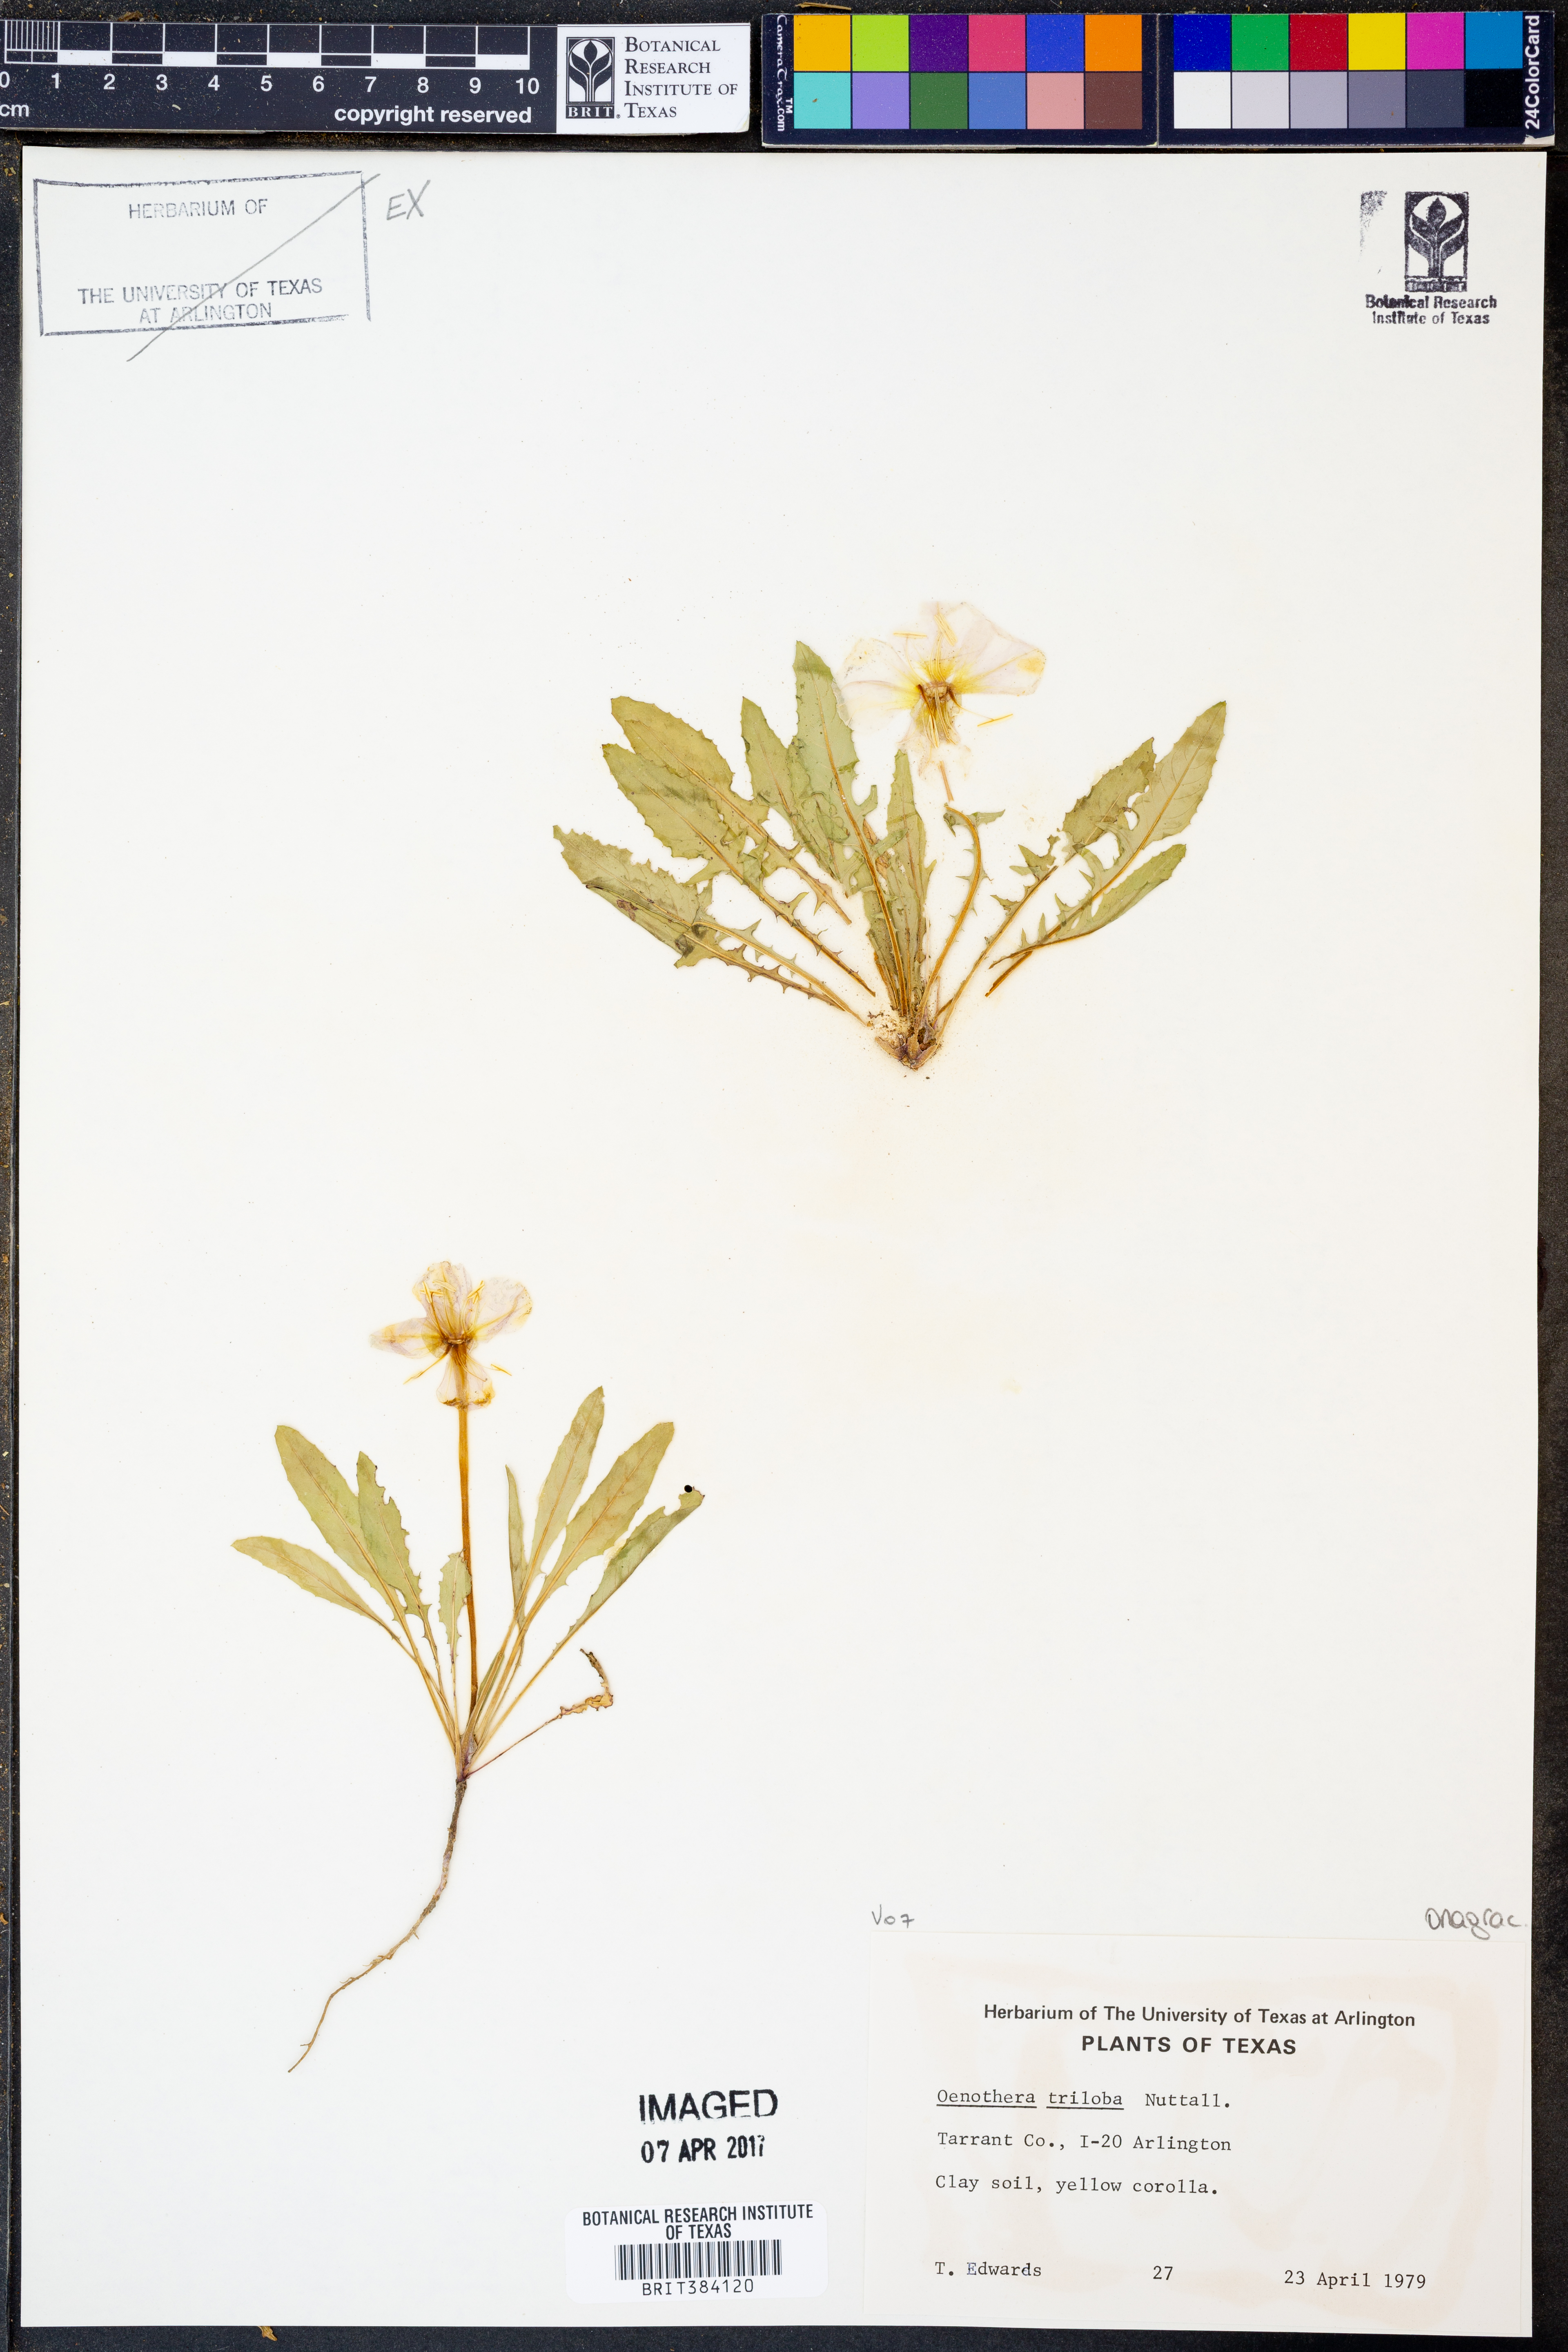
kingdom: Plantae
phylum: Tracheophyta
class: Magnoliopsida
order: Myrtales
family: Onagraceae
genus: Oenothera
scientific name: Oenothera triloba
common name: Sessile evening-primrose
